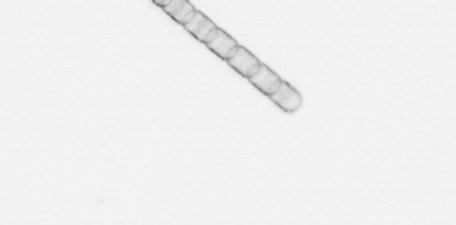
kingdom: Chromista
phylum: Ochrophyta
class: Bacillariophyceae
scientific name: Bacillariophyceae
